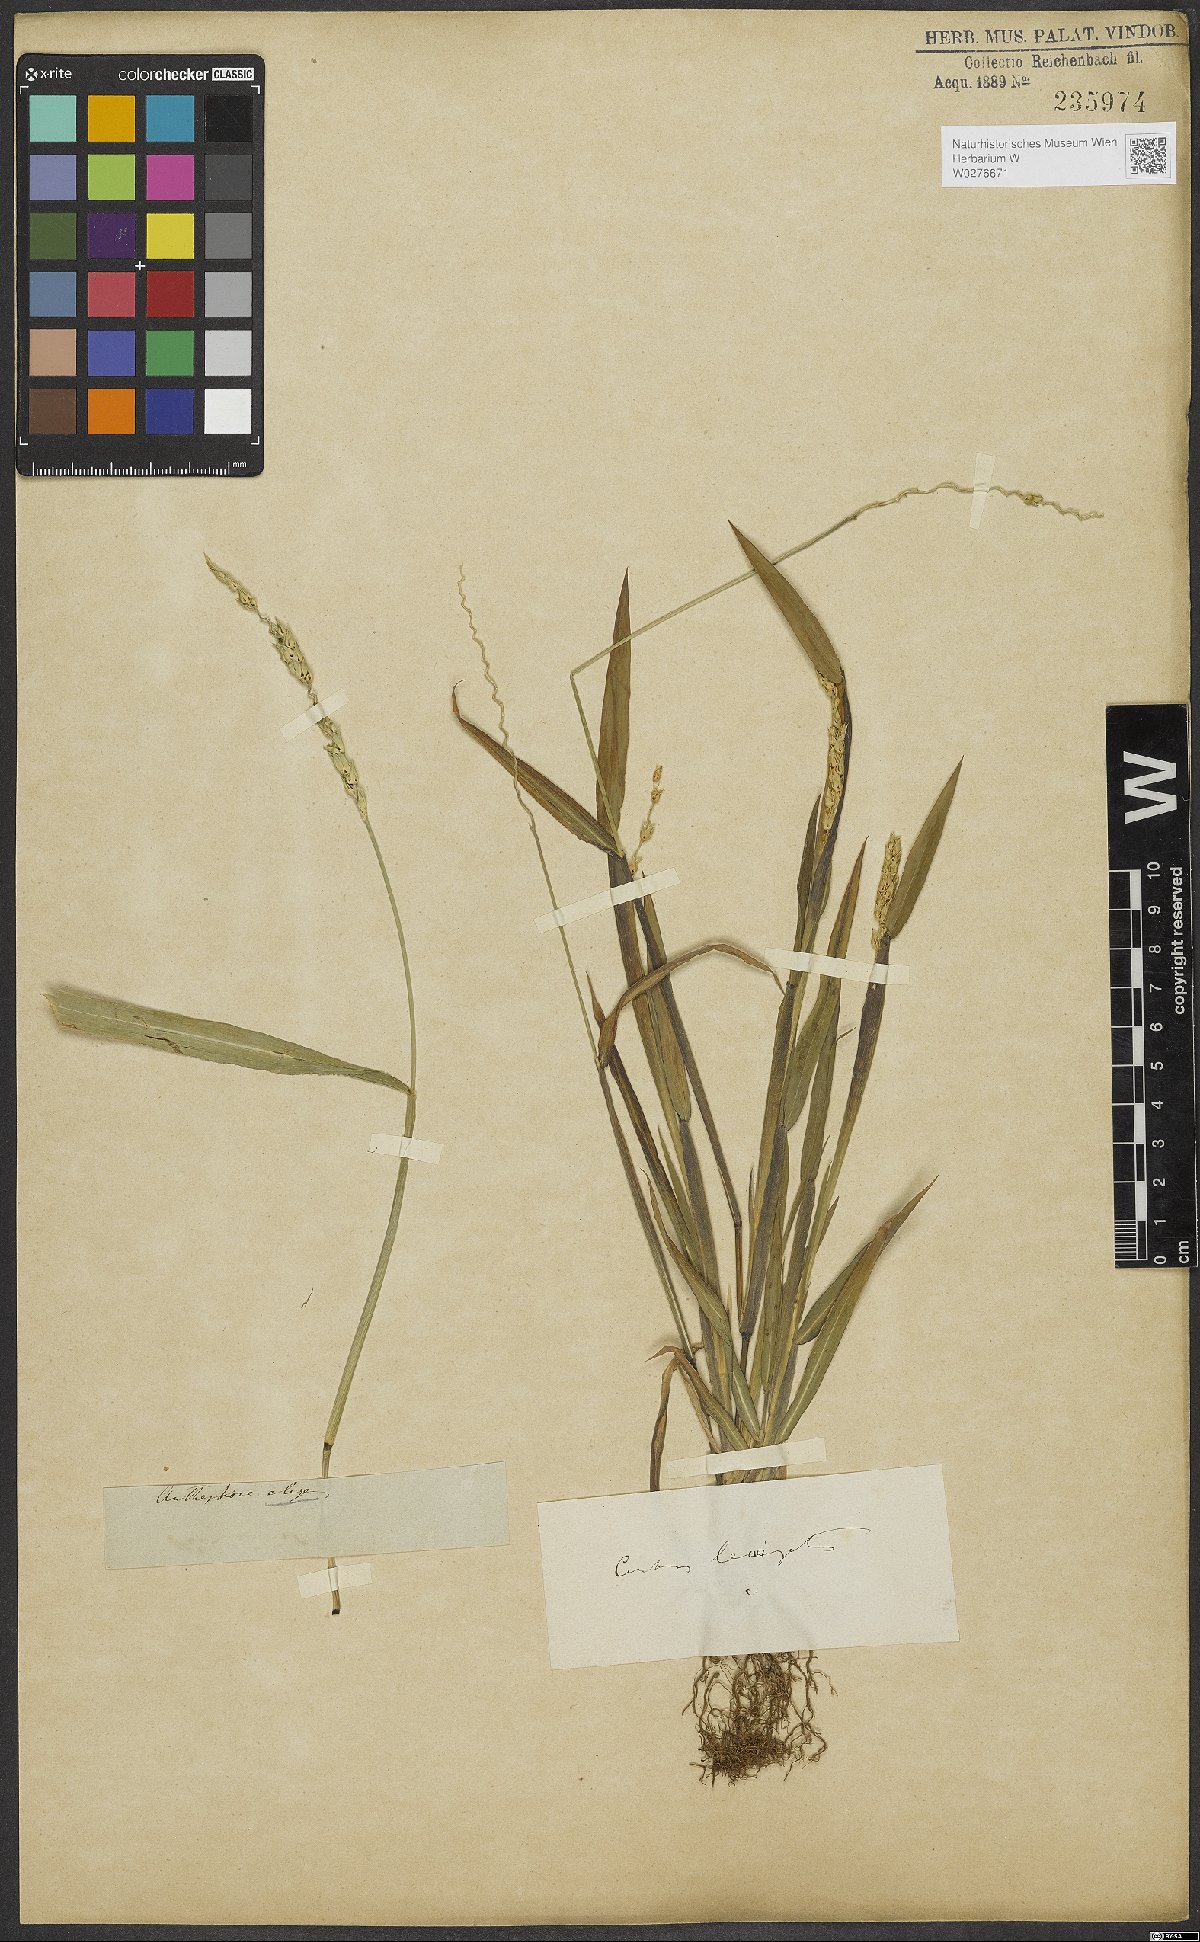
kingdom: Plantae
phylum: Tracheophyta
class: Liliopsida
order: Poales
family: Poaceae
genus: Anthephora
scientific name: Anthephora hermaphrodita
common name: Oldfield grass
